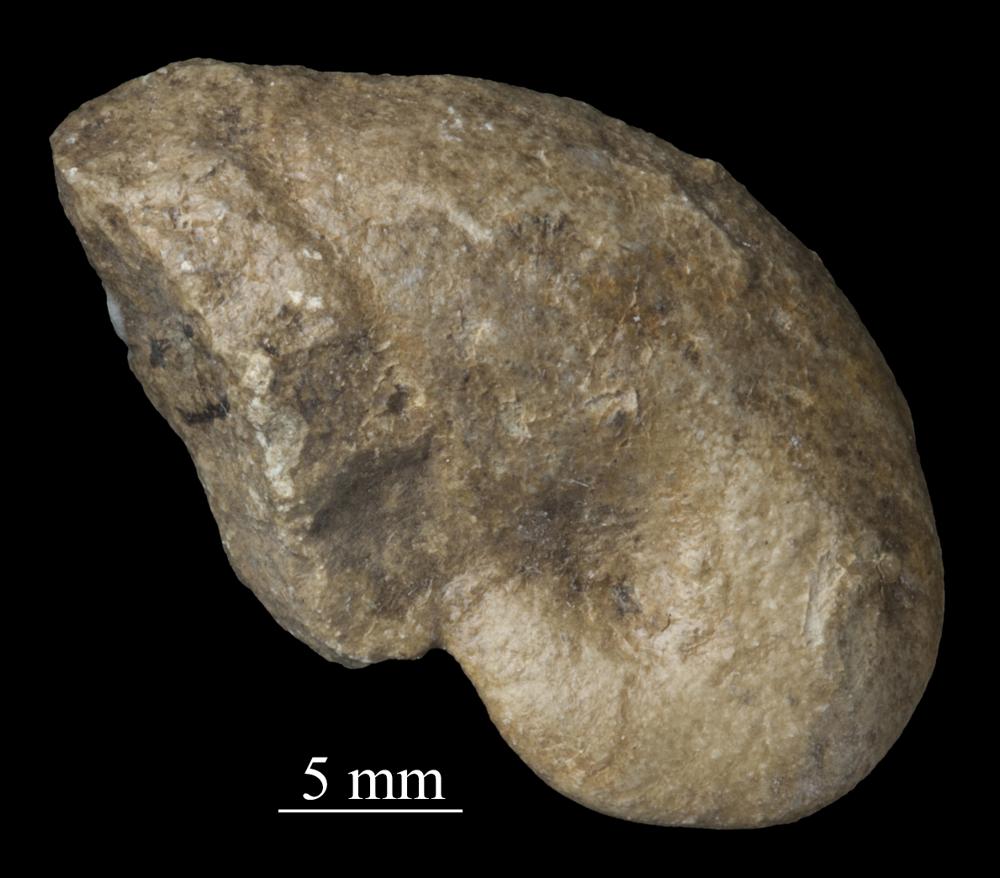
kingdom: Animalia
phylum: Mollusca
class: Gastropoda
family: Bellerophontidae
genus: Bellerophon
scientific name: Bellerophon
